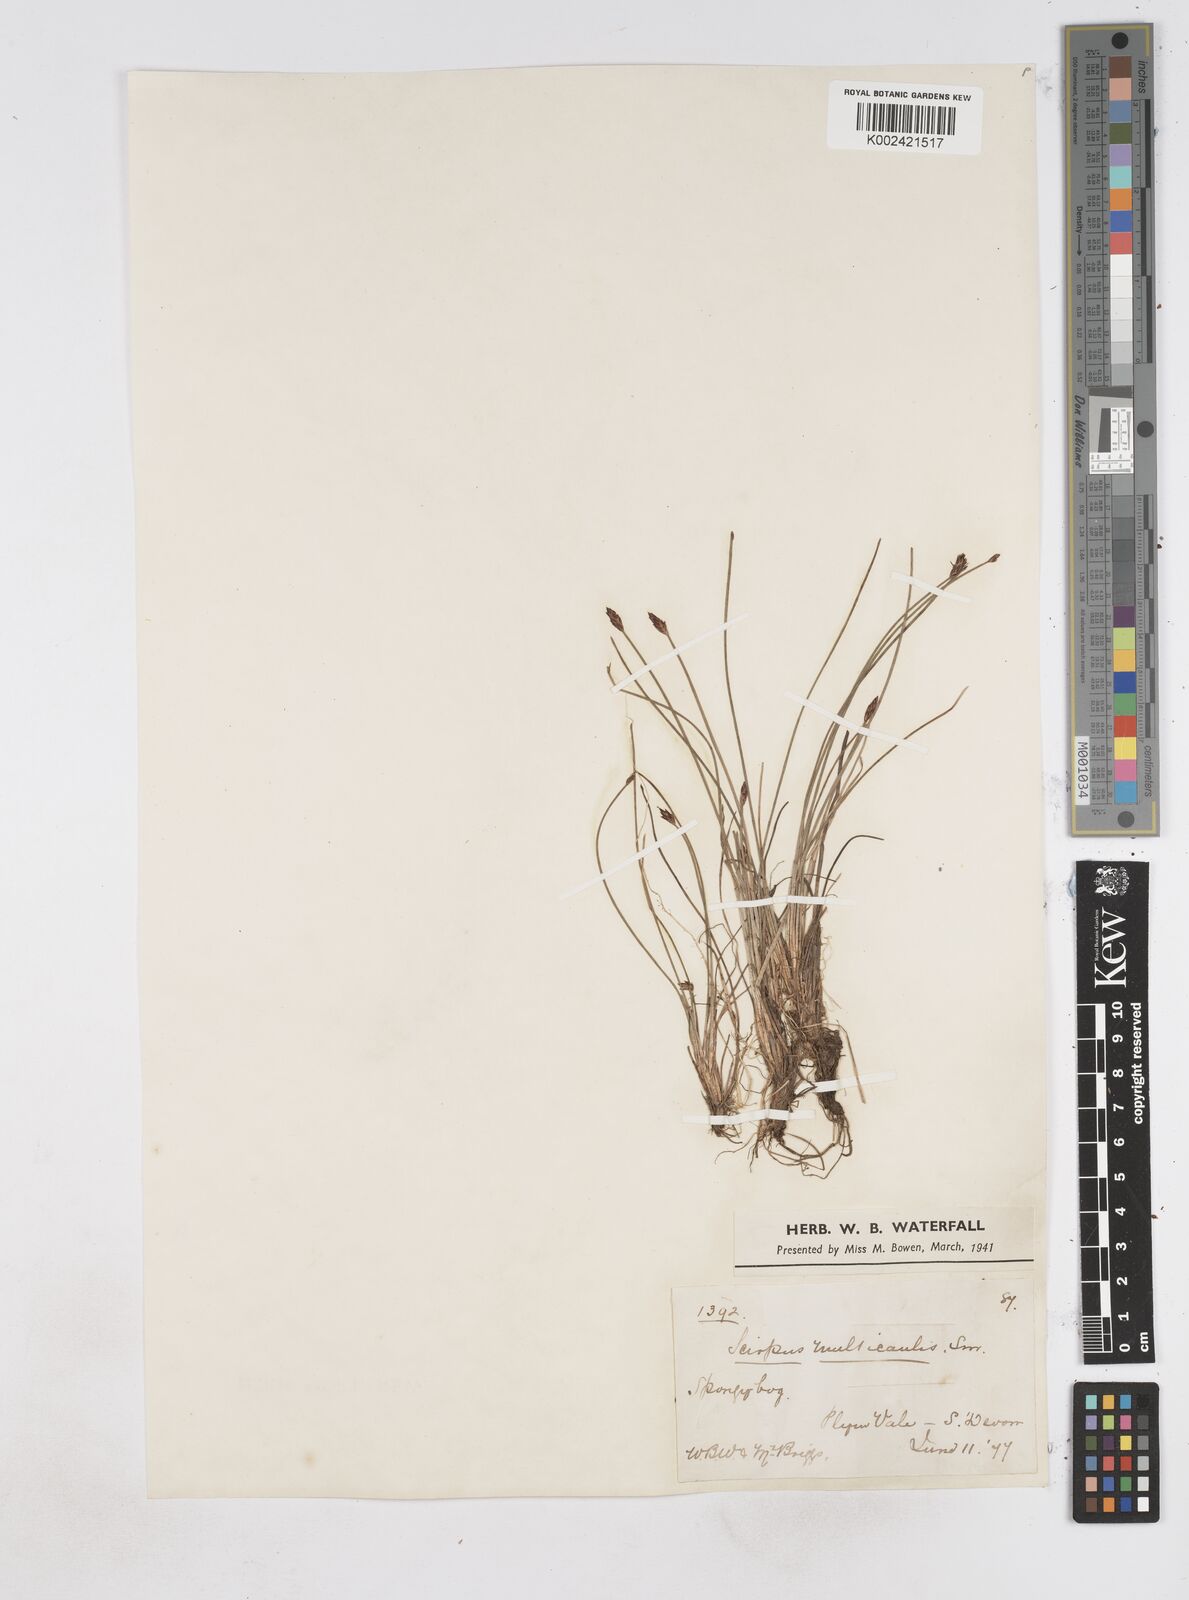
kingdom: Plantae
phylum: Tracheophyta
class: Liliopsida
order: Poales
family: Cyperaceae
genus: Eleocharis
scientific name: Eleocharis multicaulis
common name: Many-stalked spike-rush
